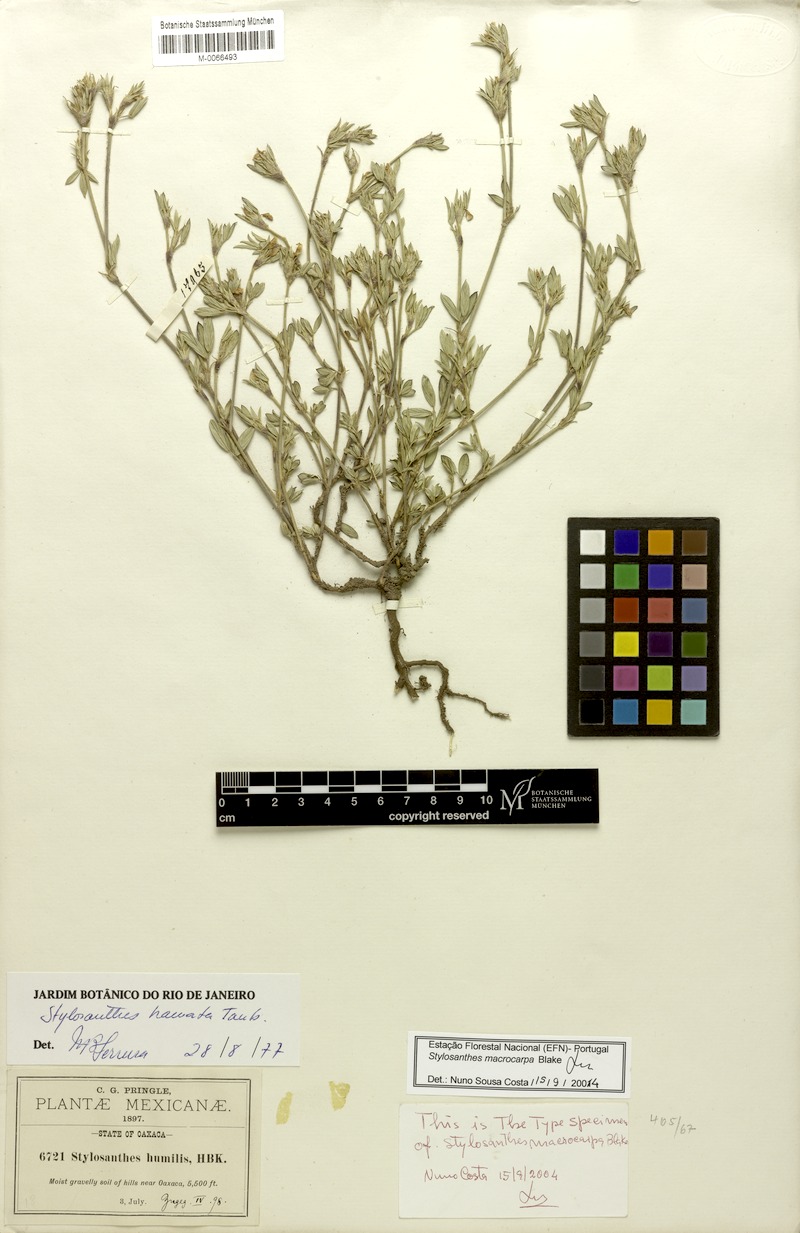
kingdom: Plantae
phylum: Tracheophyta
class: Magnoliopsida
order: Fabales
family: Fabaceae
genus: Stylosanthes
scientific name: Stylosanthes macrocarpa
